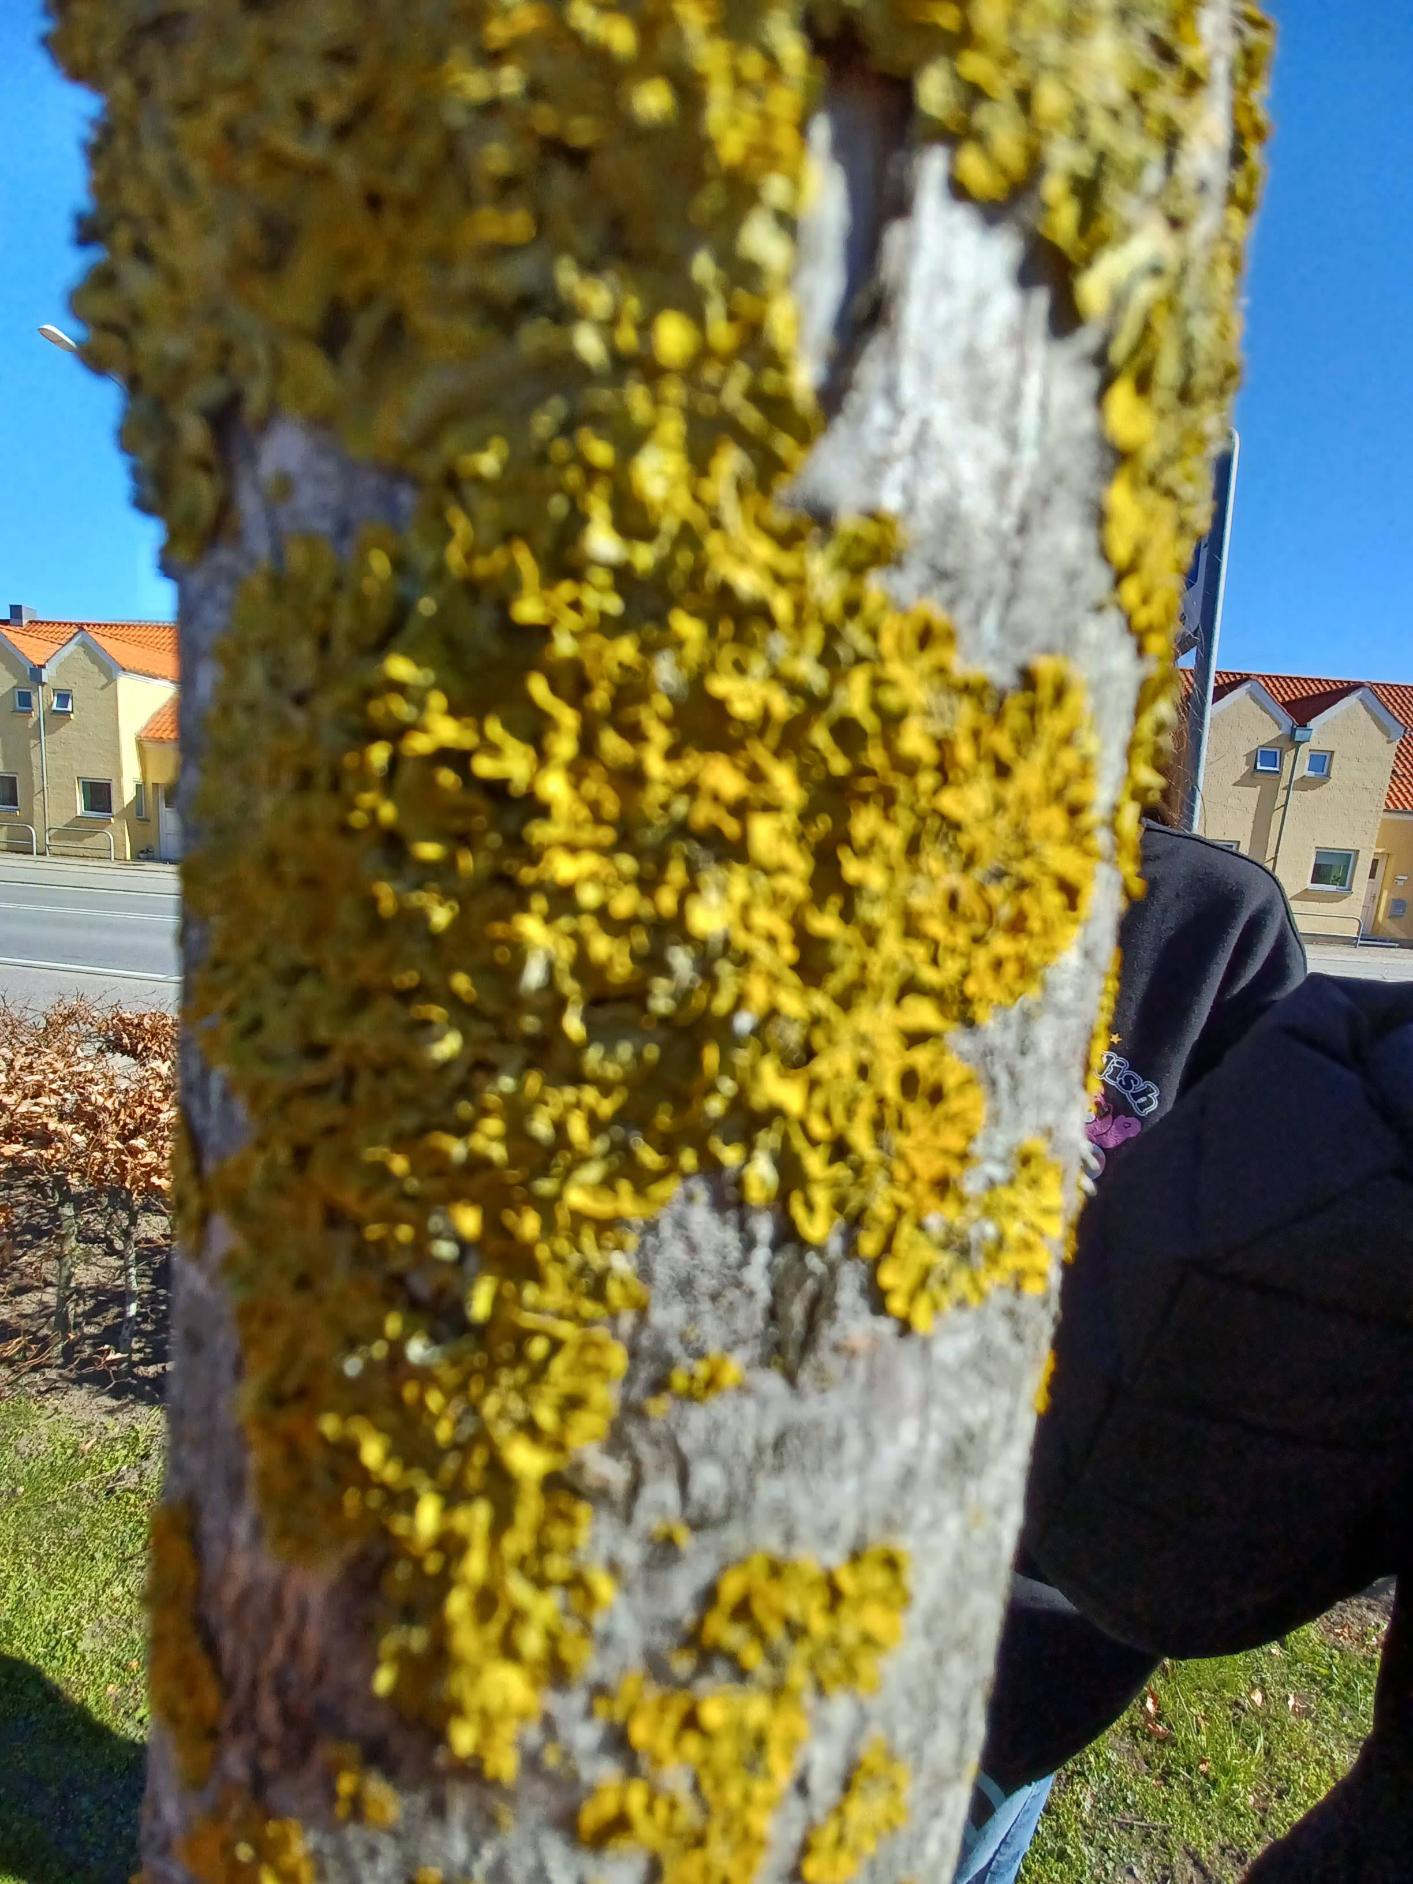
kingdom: Fungi
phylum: Ascomycota
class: Lecanoromycetes
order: Teloschistales
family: Teloschistaceae
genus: Xanthoria
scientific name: Xanthoria parietina
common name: Almindelig væggelav
